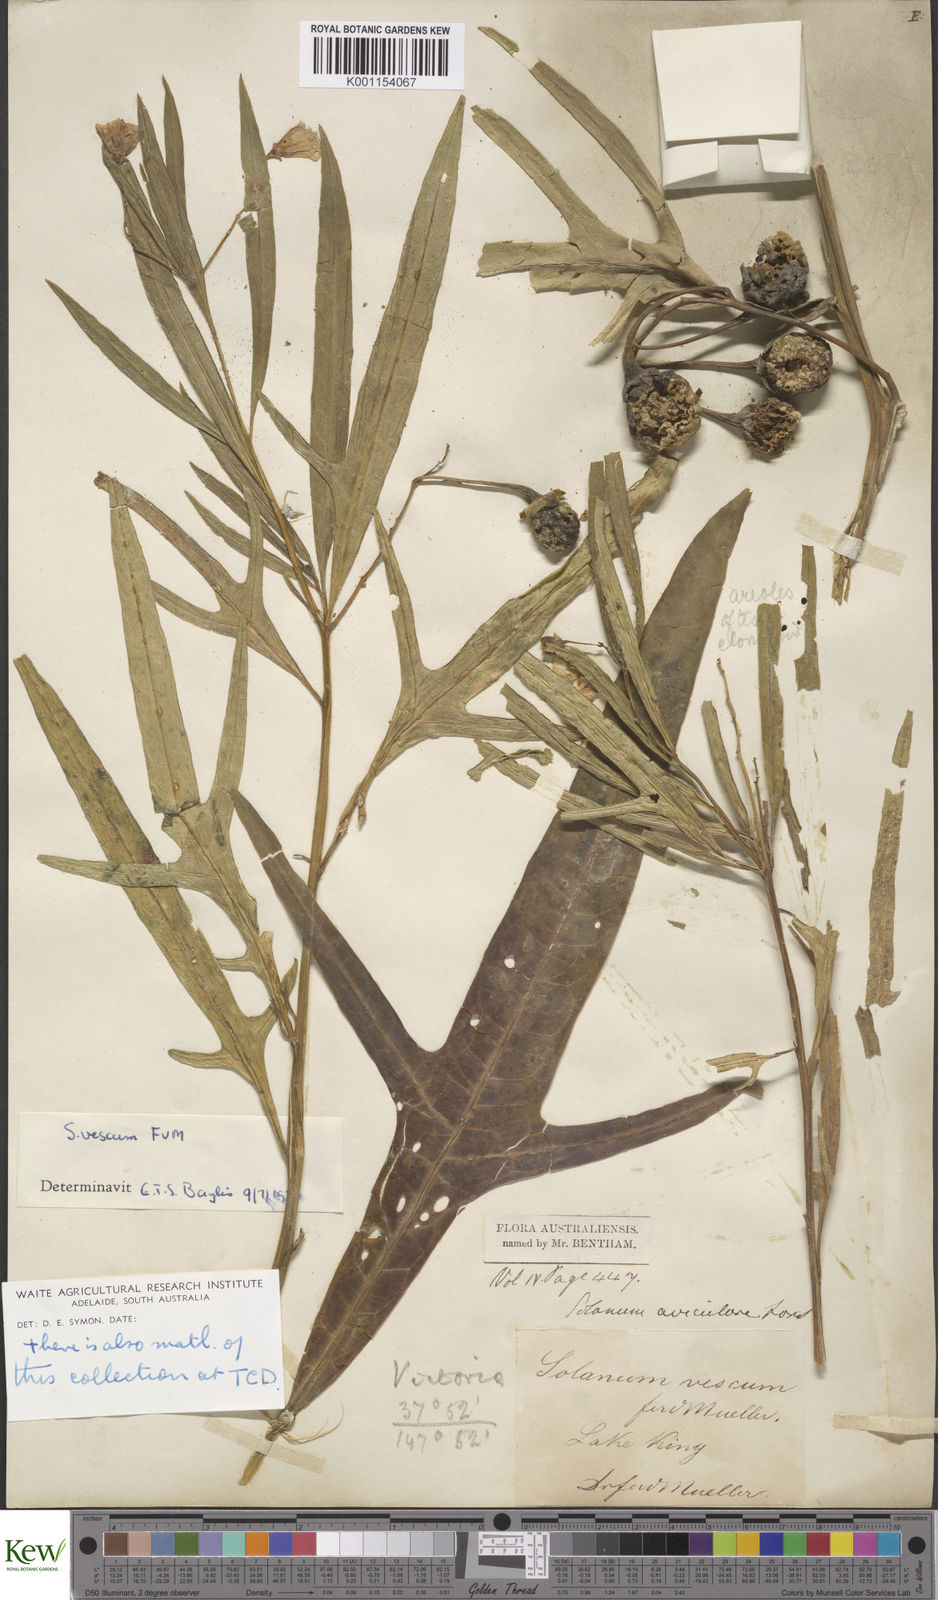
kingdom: Plantae
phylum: Tracheophyta
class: Magnoliopsida
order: Solanales
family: Solanaceae
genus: Solanum
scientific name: Solanum vescum
